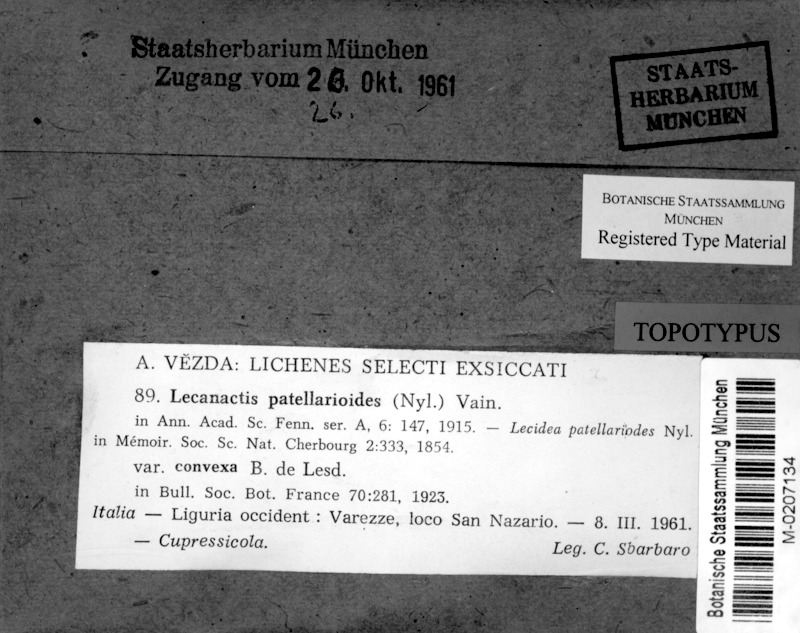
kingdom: Fungi
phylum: Ascomycota
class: Arthoniomycetes
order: Arthoniales
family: Roccellaceae
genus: Bactrospora
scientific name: Bactrospora patellarioides
